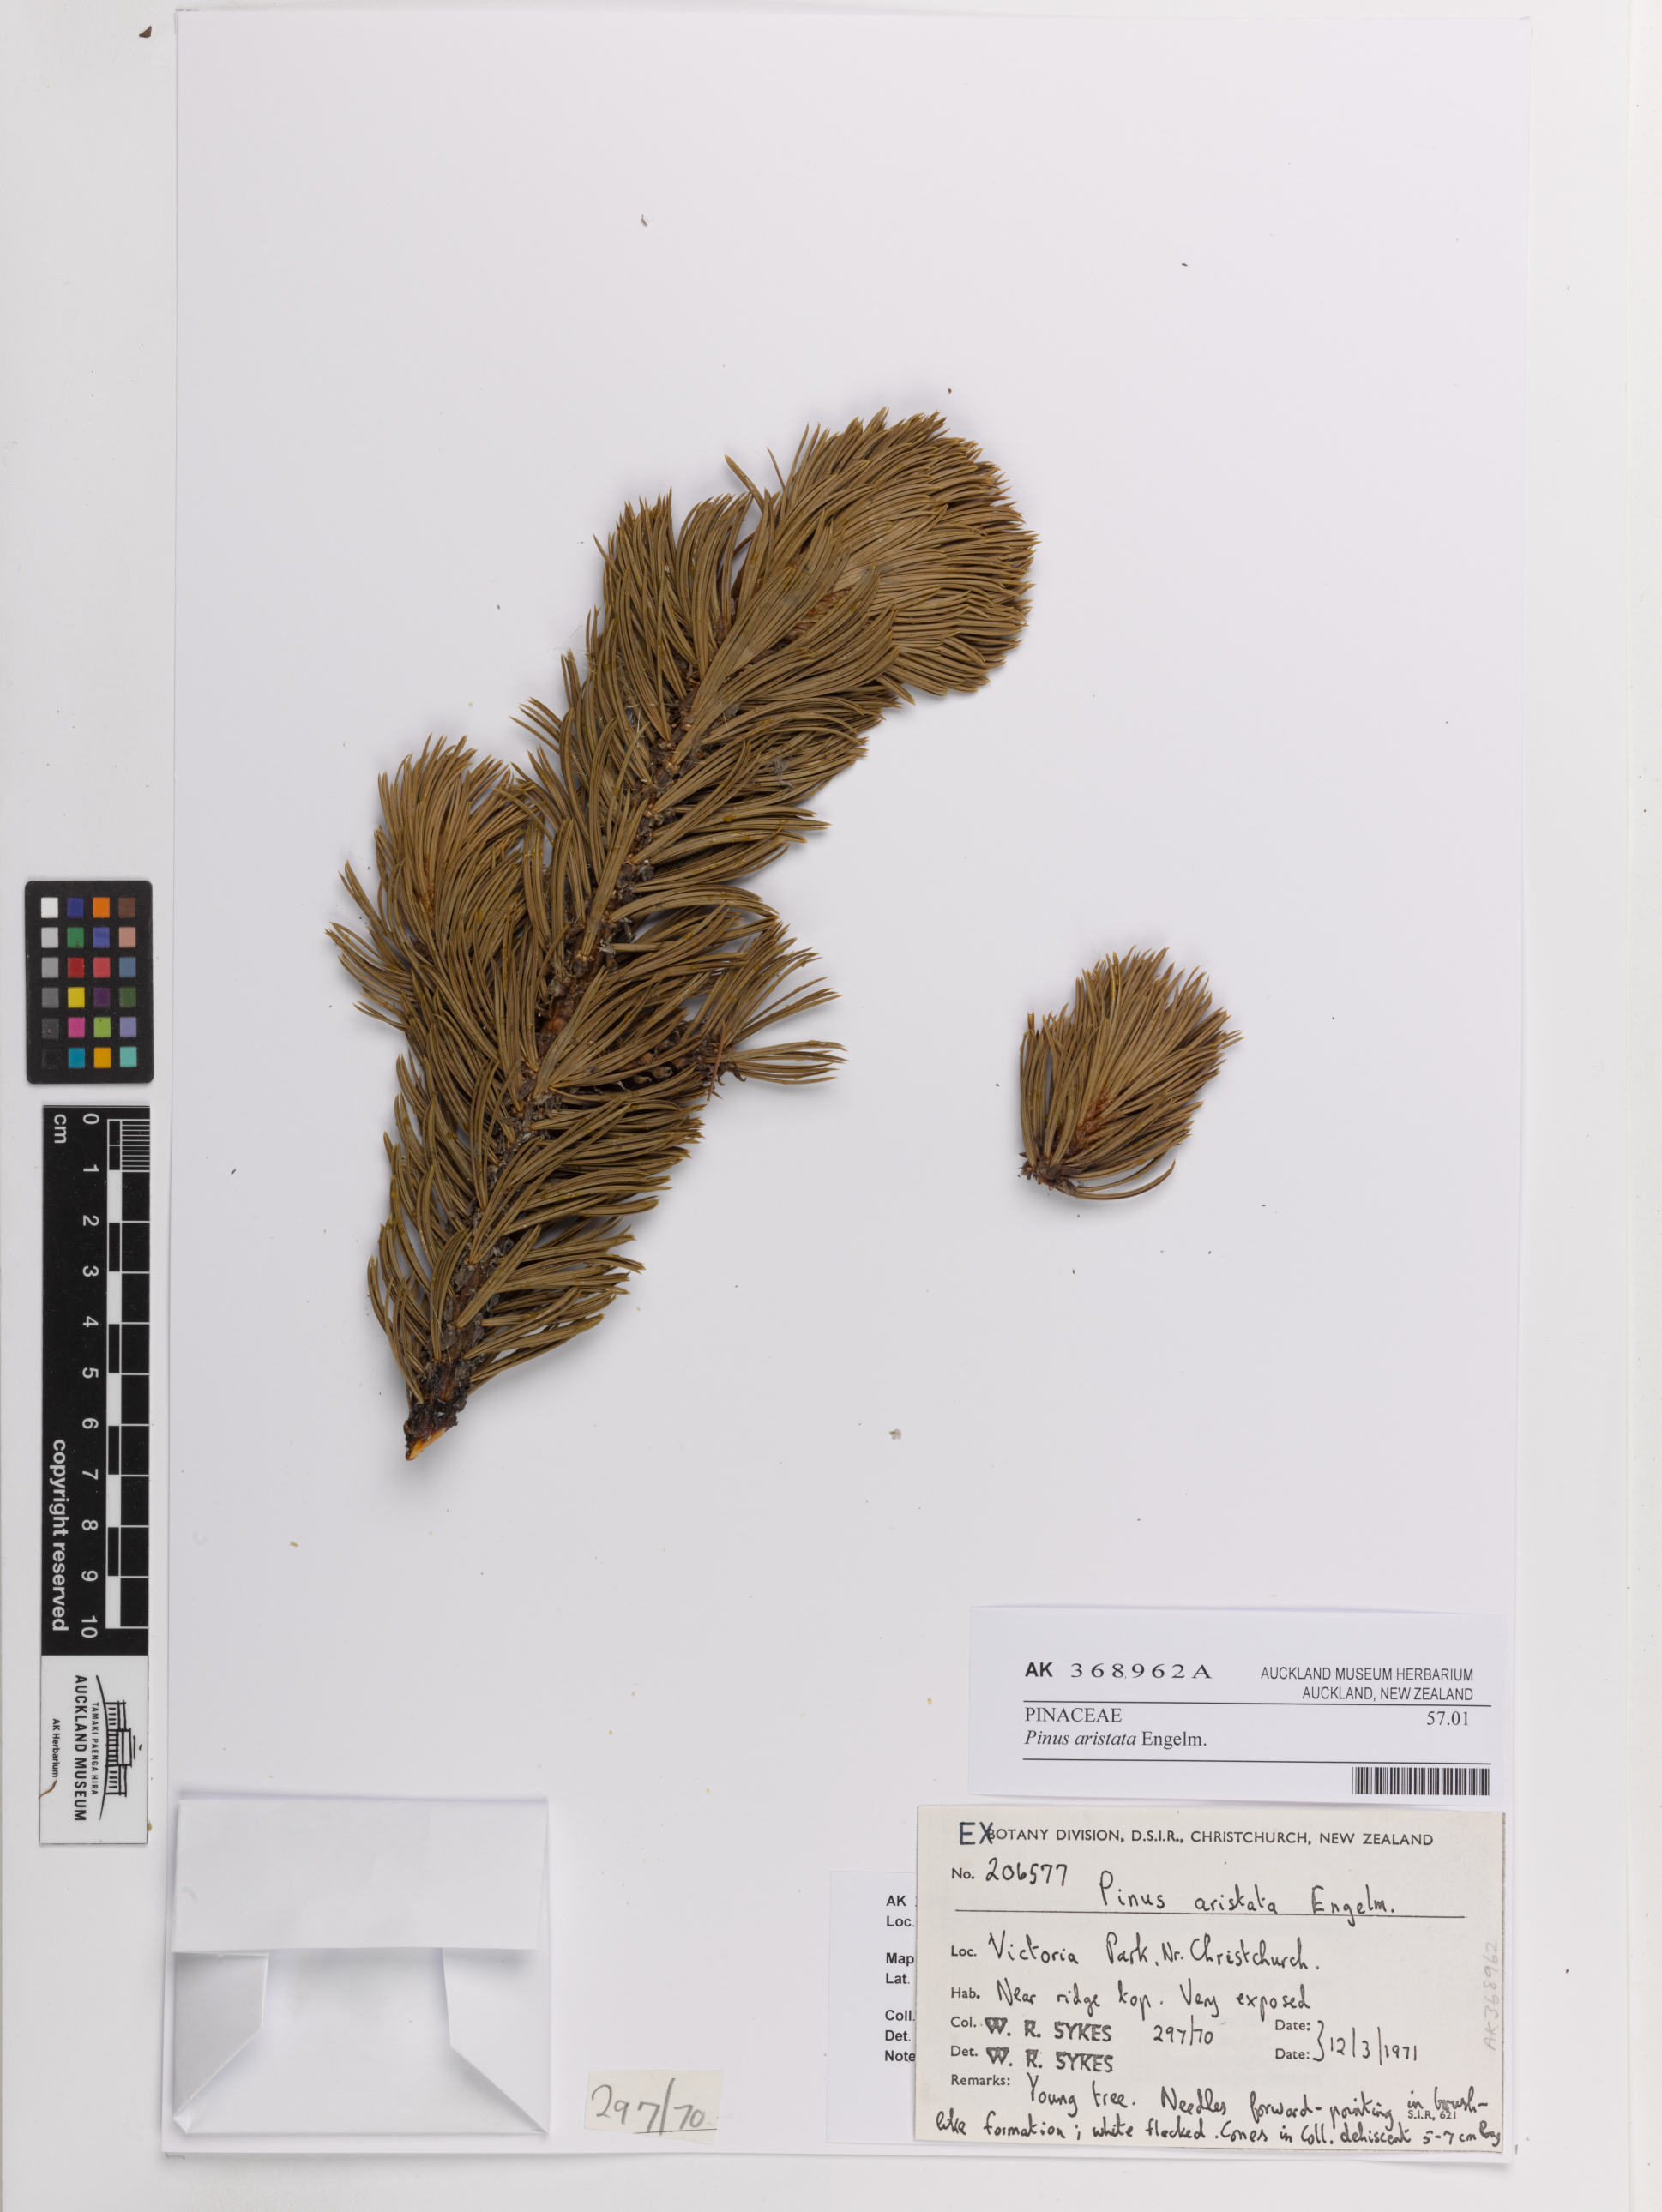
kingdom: Plantae
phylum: Tracheophyta
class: Pinopsida
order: Pinales
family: Pinaceae
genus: Pinus
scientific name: Pinus aristata
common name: Colorado bristlecone pine
